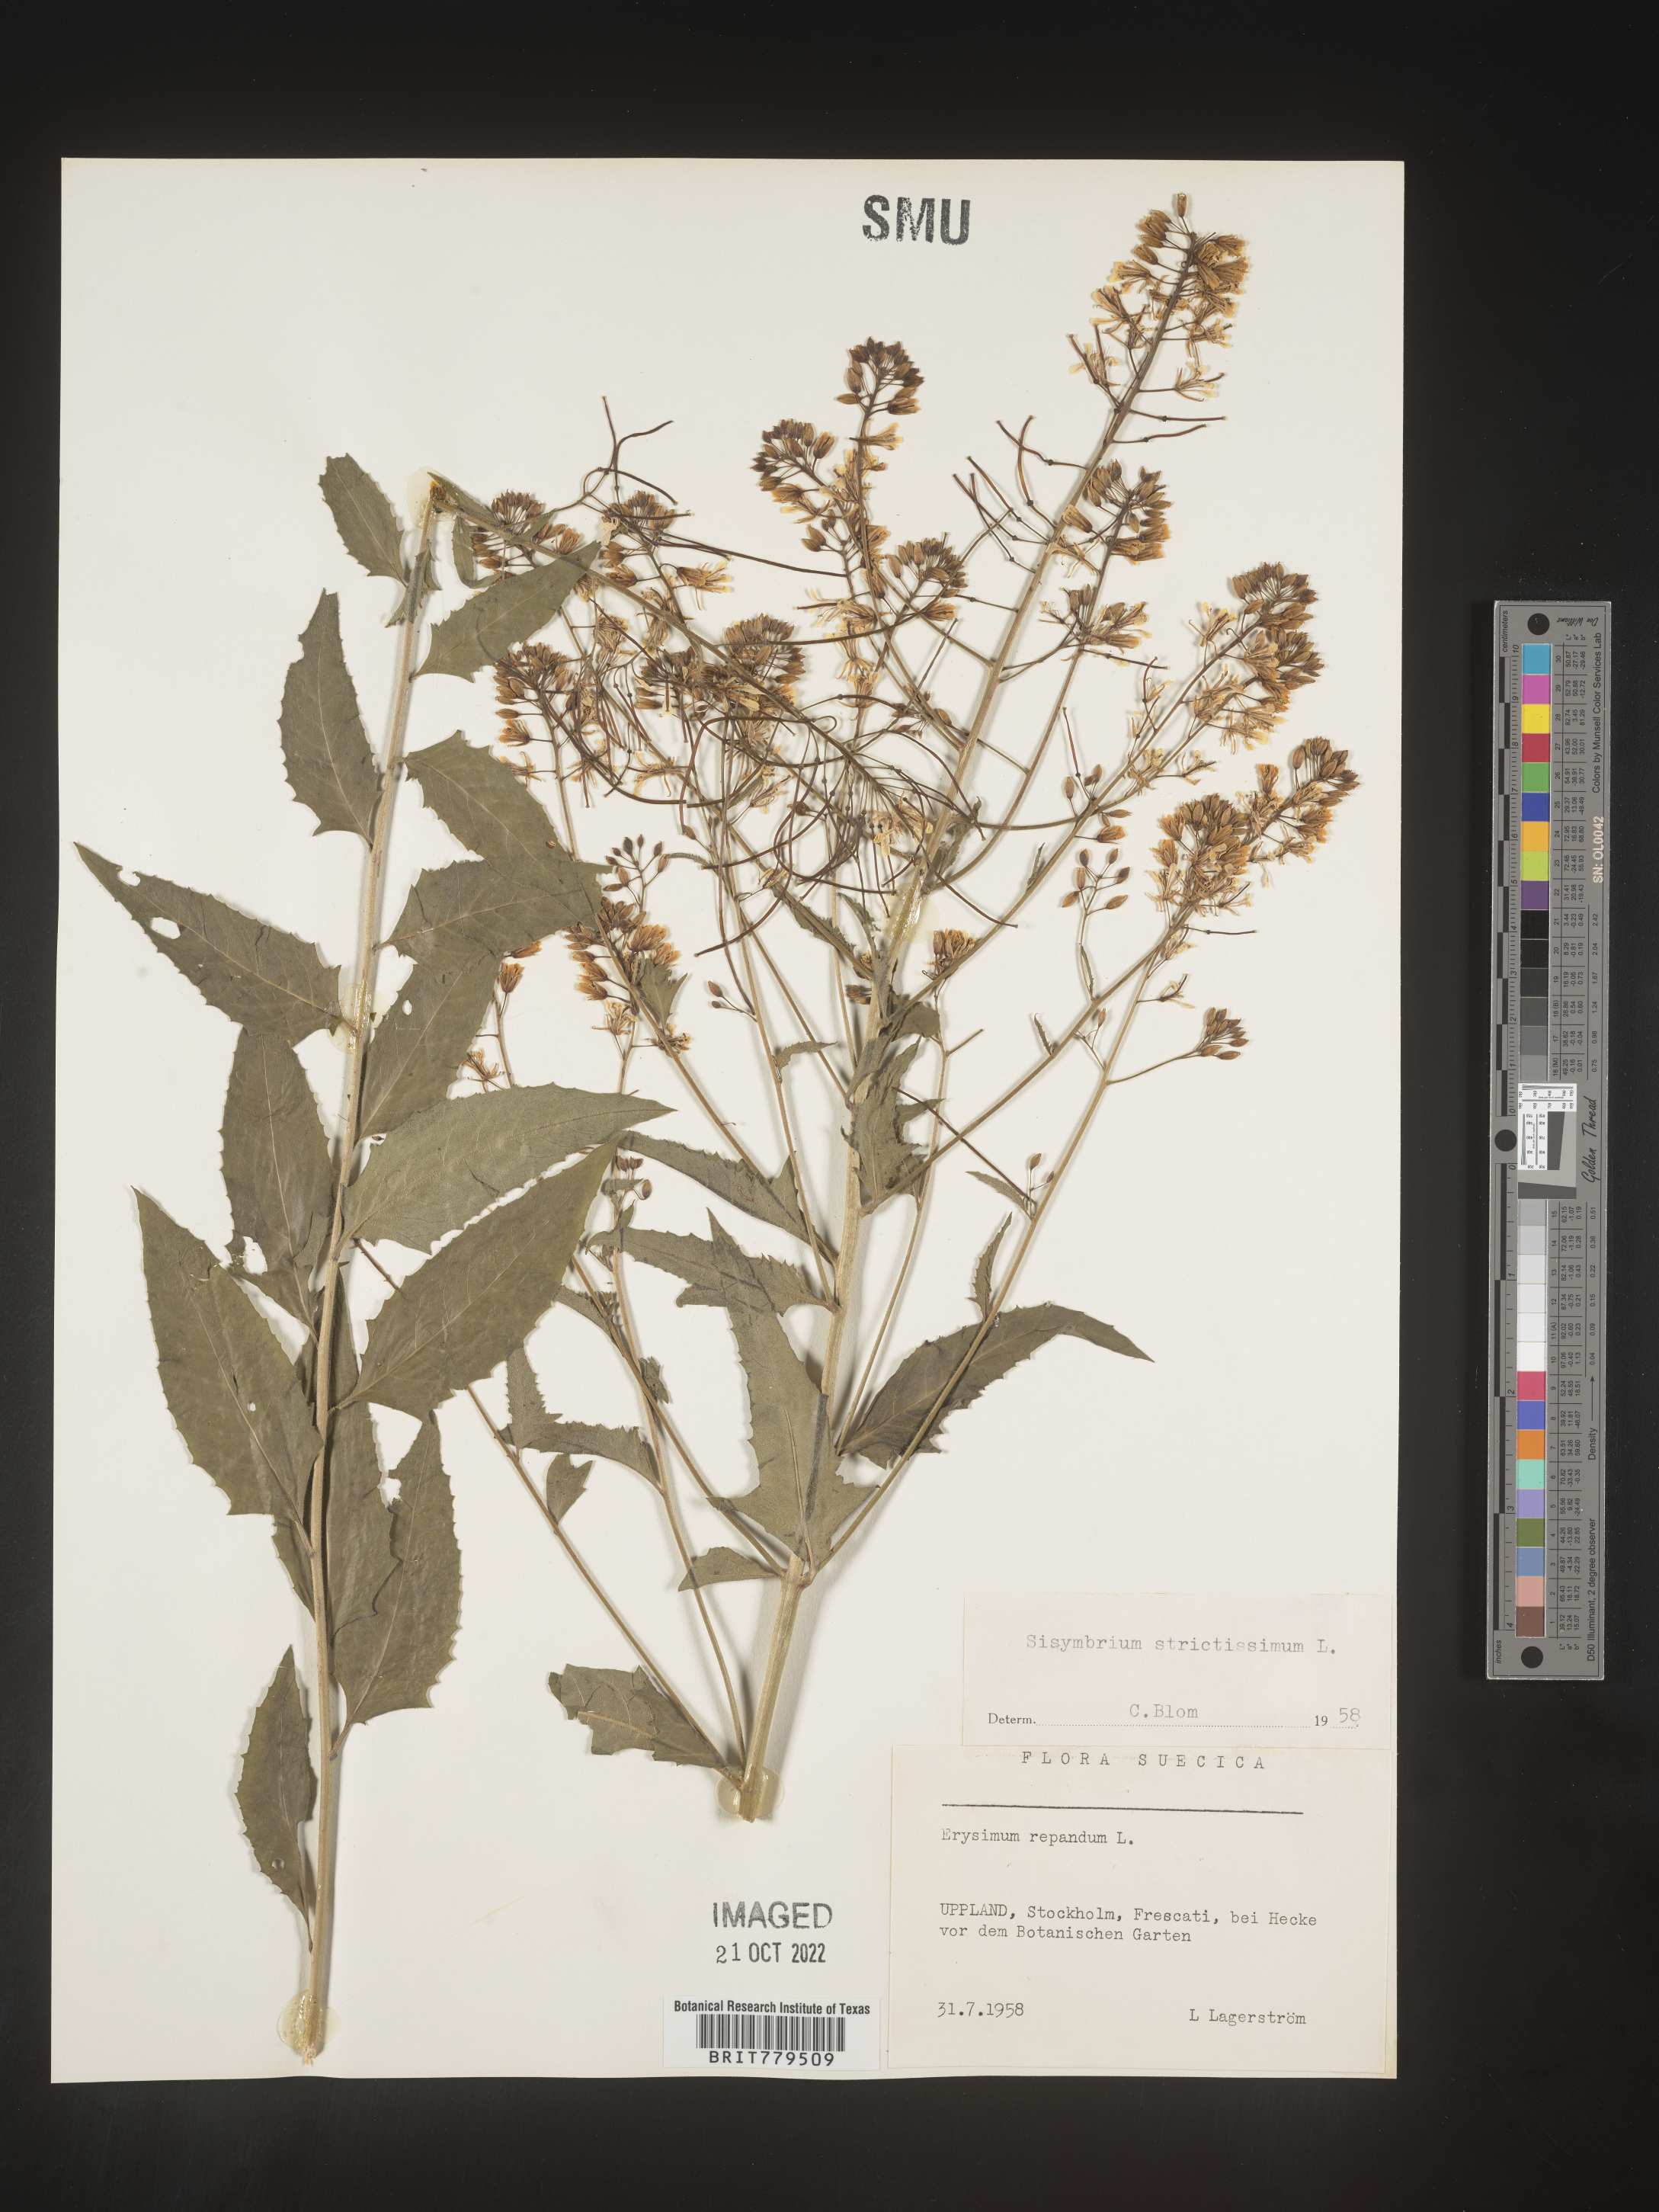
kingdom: Plantae
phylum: Tracheophyta
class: Magnoliopsida
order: Brassicales
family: Brassicaceae
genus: Sisymbrium
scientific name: Sisymbrium
